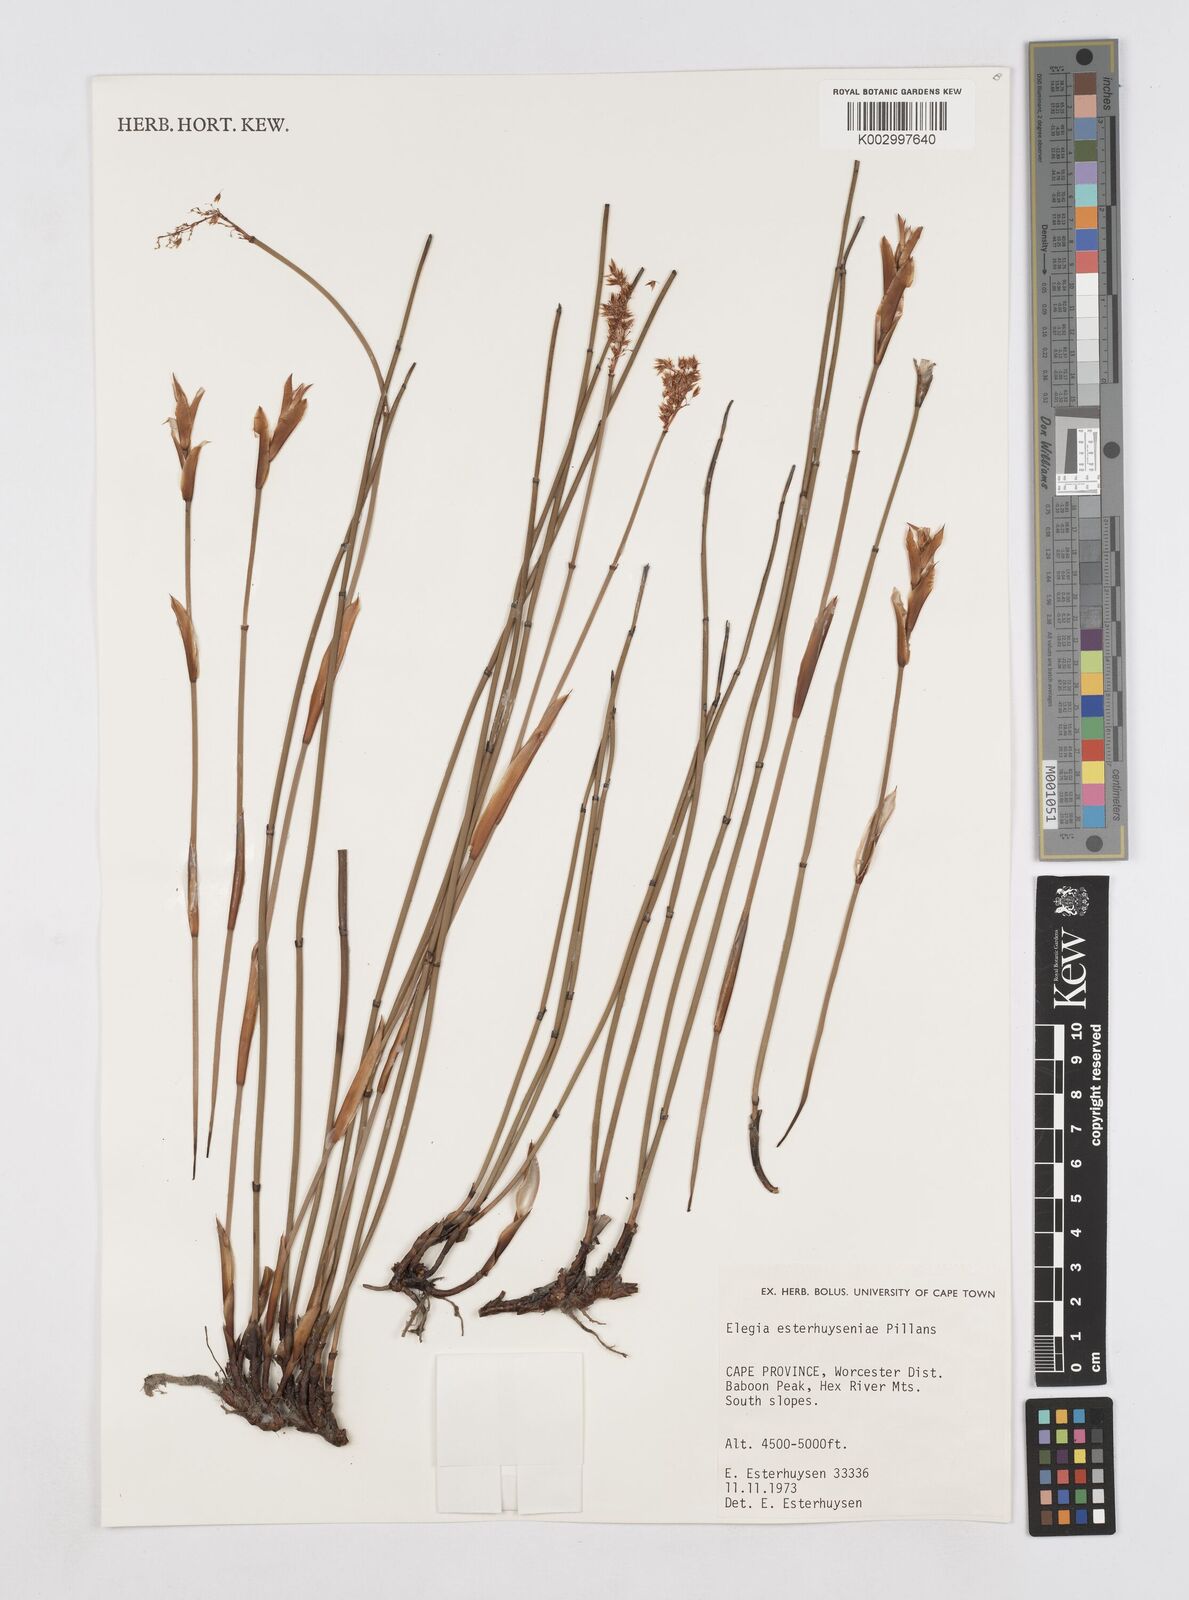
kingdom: Plantae
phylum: Tracheophyta
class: Liliopsida
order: Poales
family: Restionaceae
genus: Elegia
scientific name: Elegia esterhuyseniae
